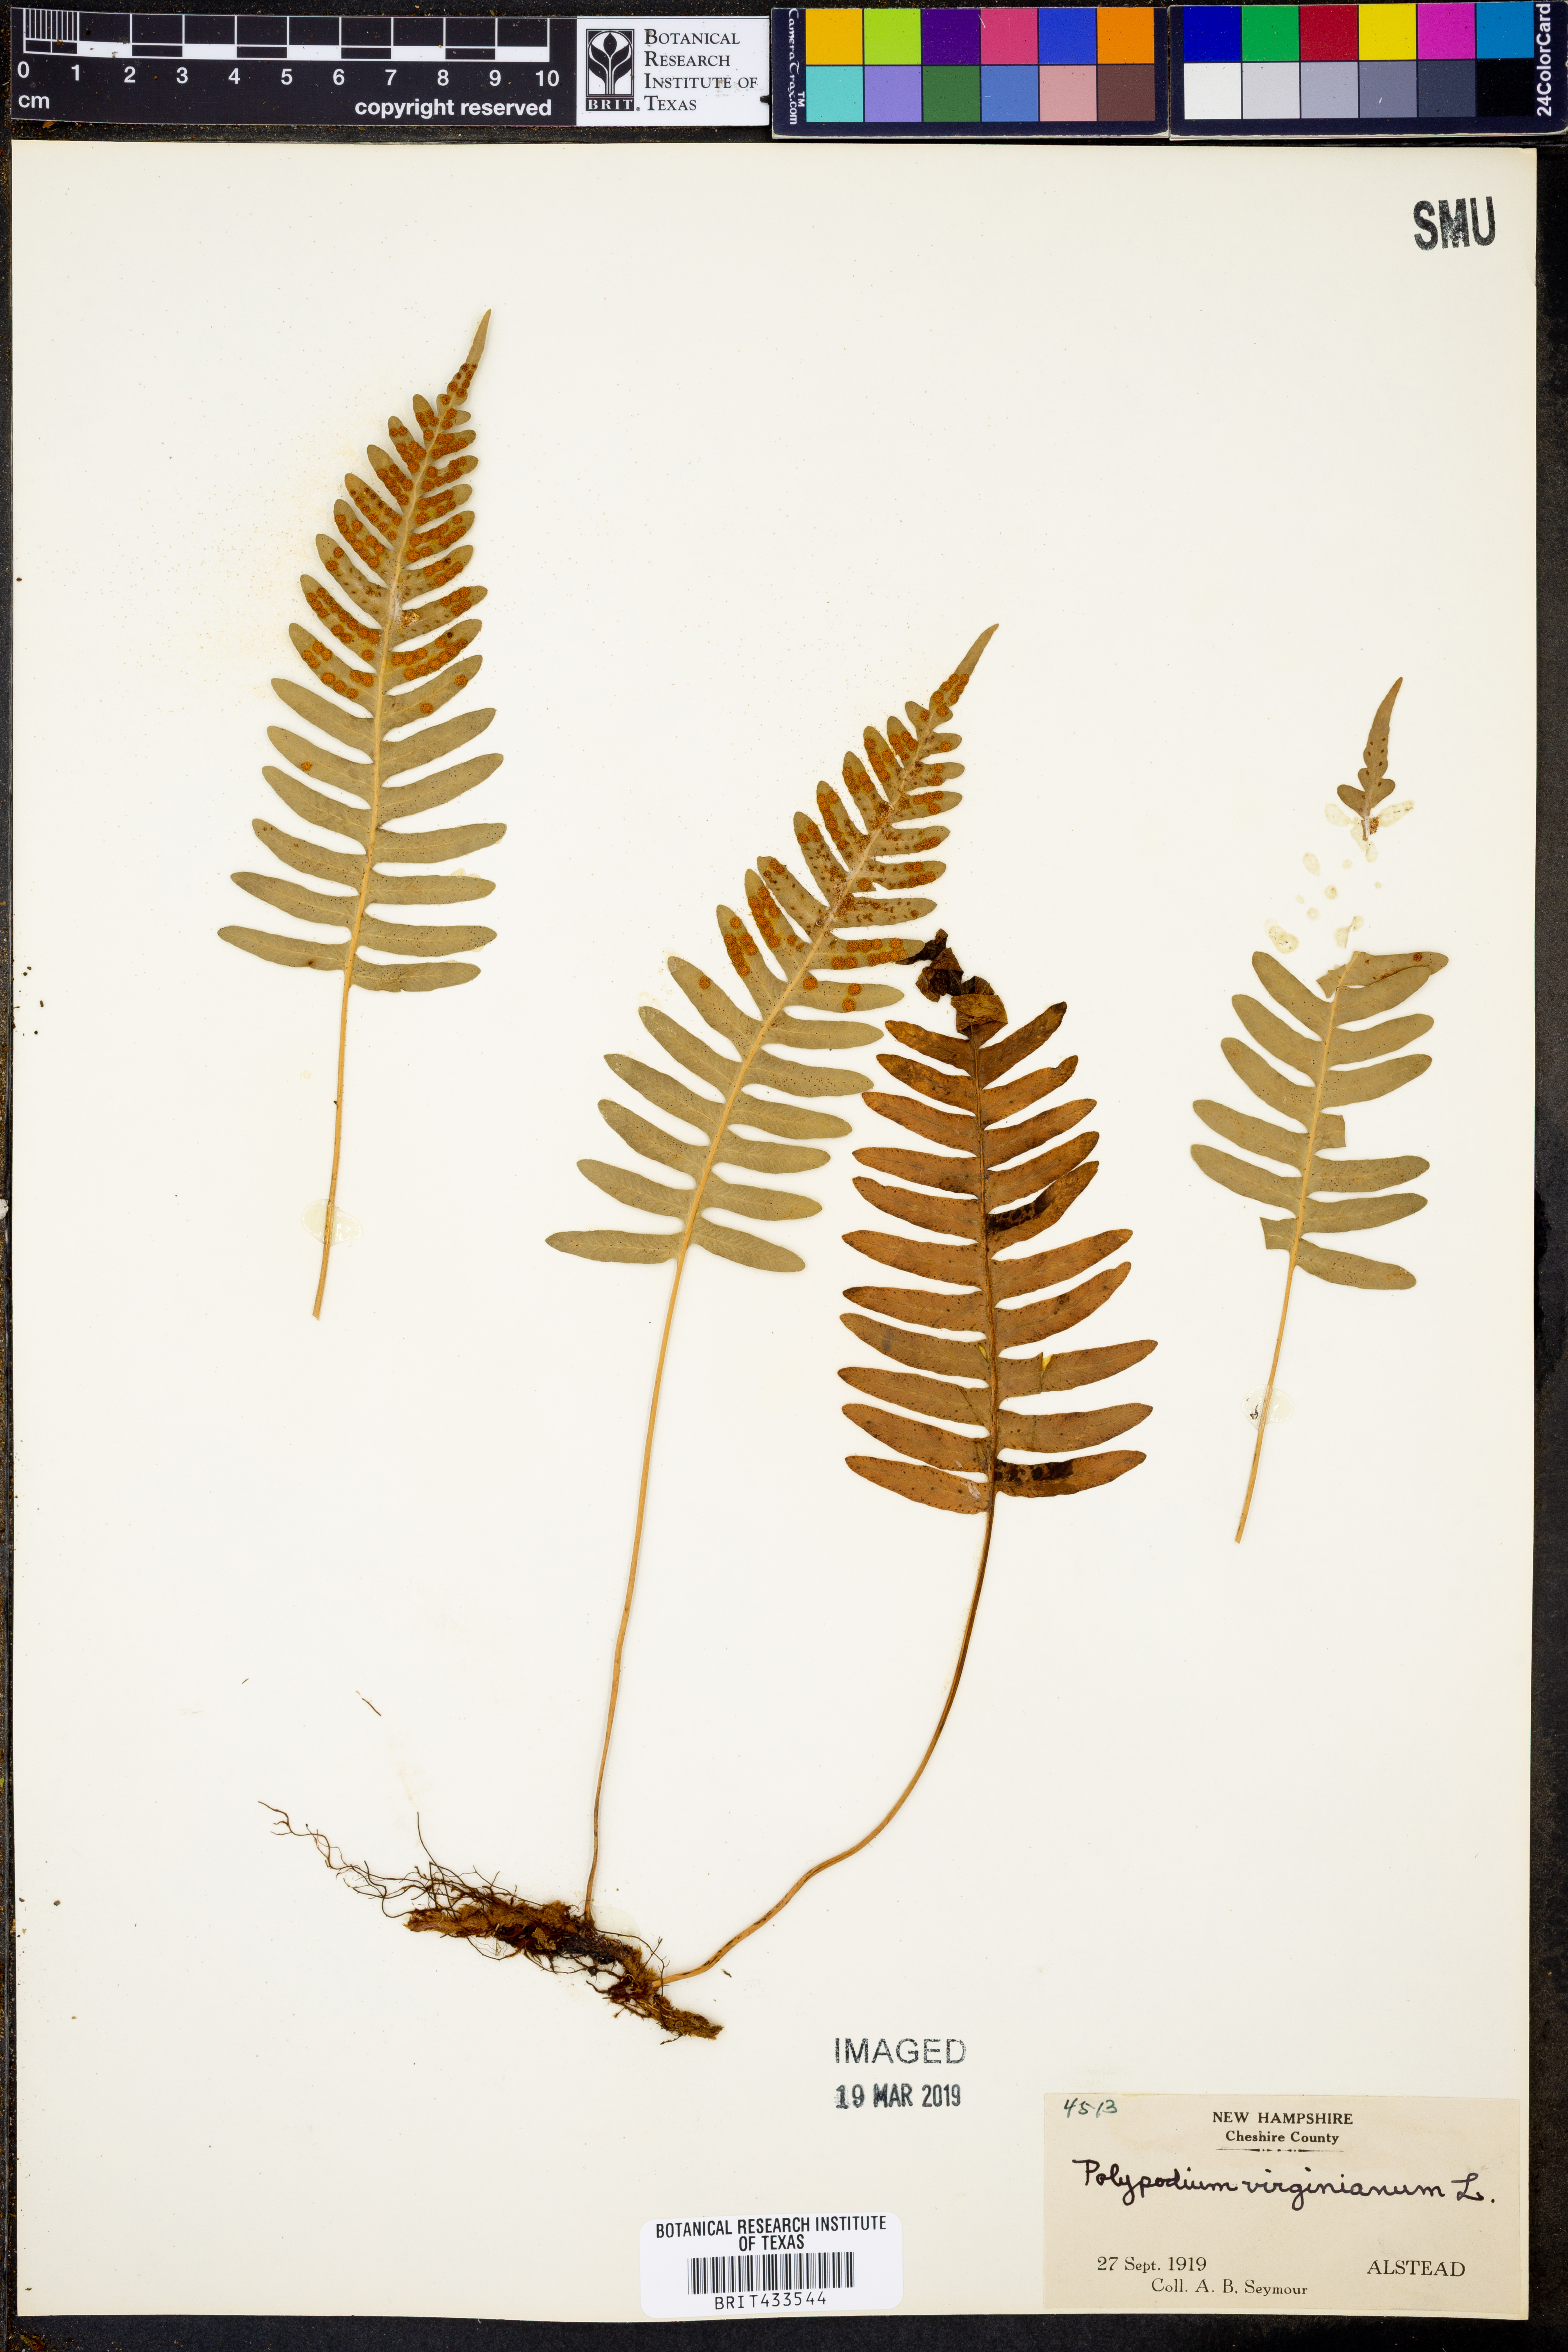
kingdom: Plantae
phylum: Tracheophyta
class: Polypodiopsida
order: Polypodiales
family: Polypodiaceae
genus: Polypodium
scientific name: Polypodium virginianum
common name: American wall fern
